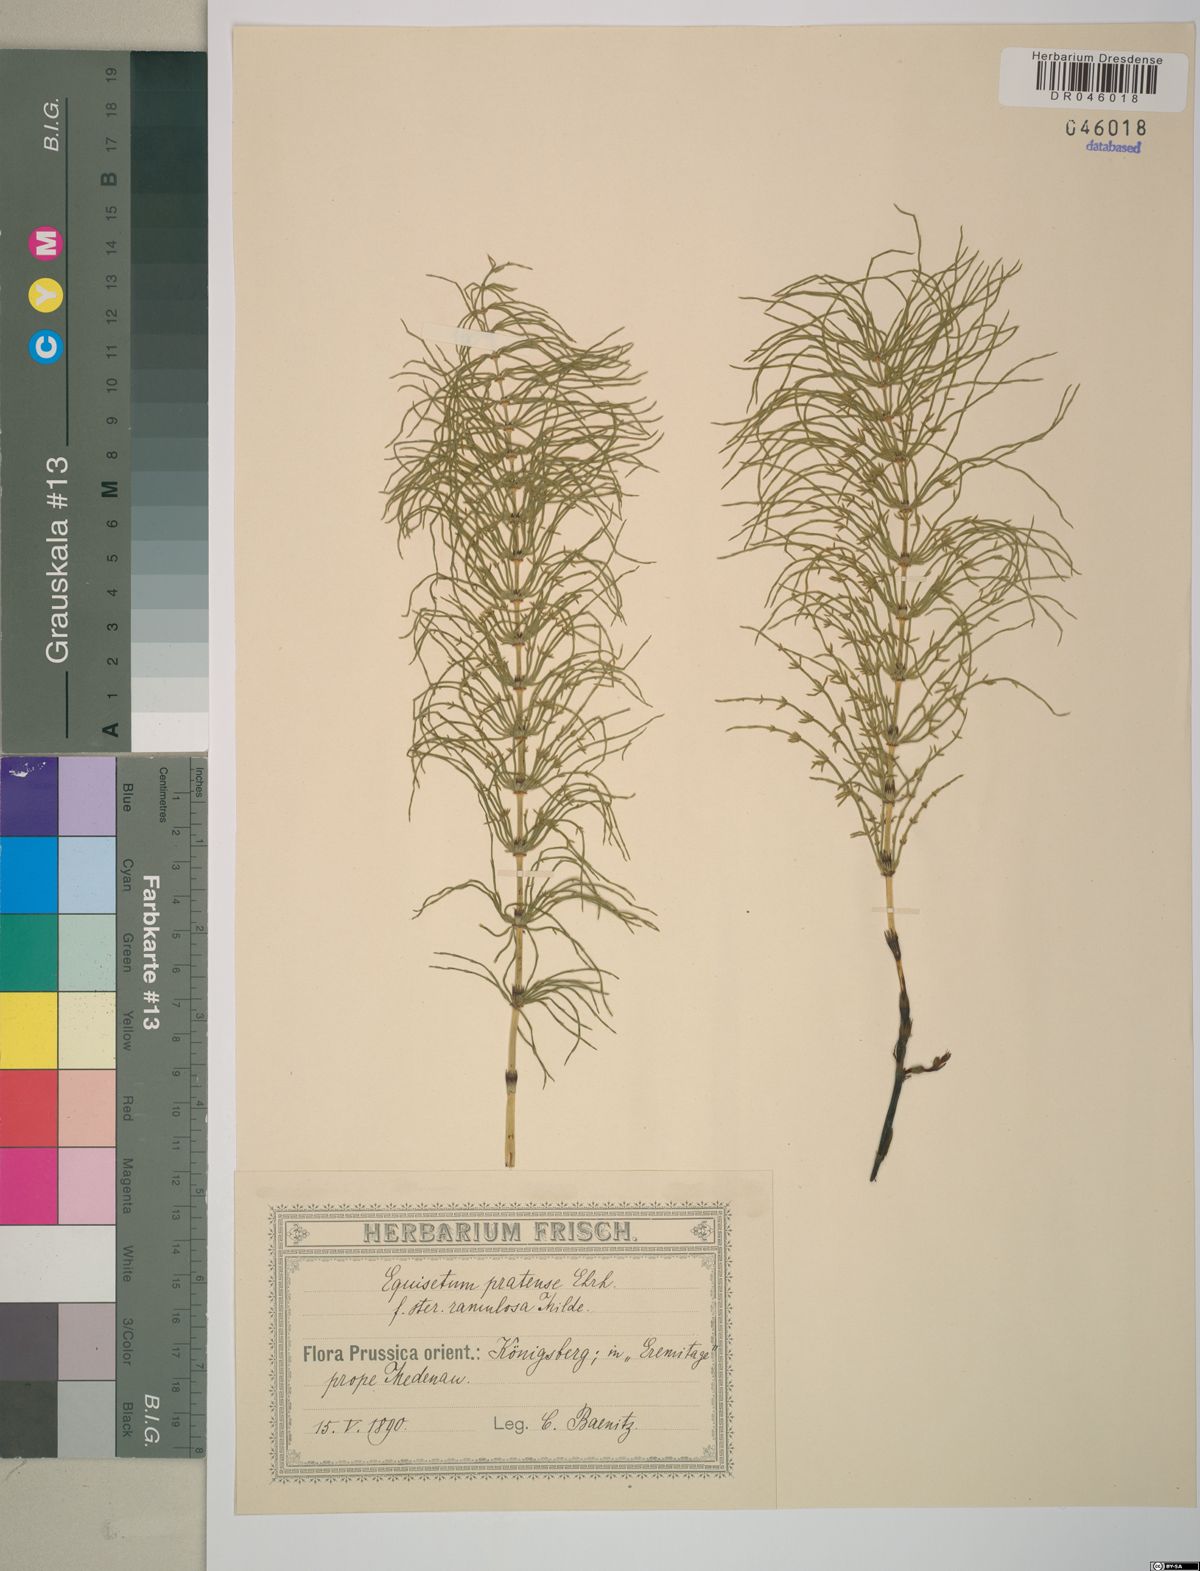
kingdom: Plantae
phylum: Tracheophyta
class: Polypodiopsida
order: Equisetales
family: Equisetaceae
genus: Equisetum
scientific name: Equisetum pratense
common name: Meadow horsetail
